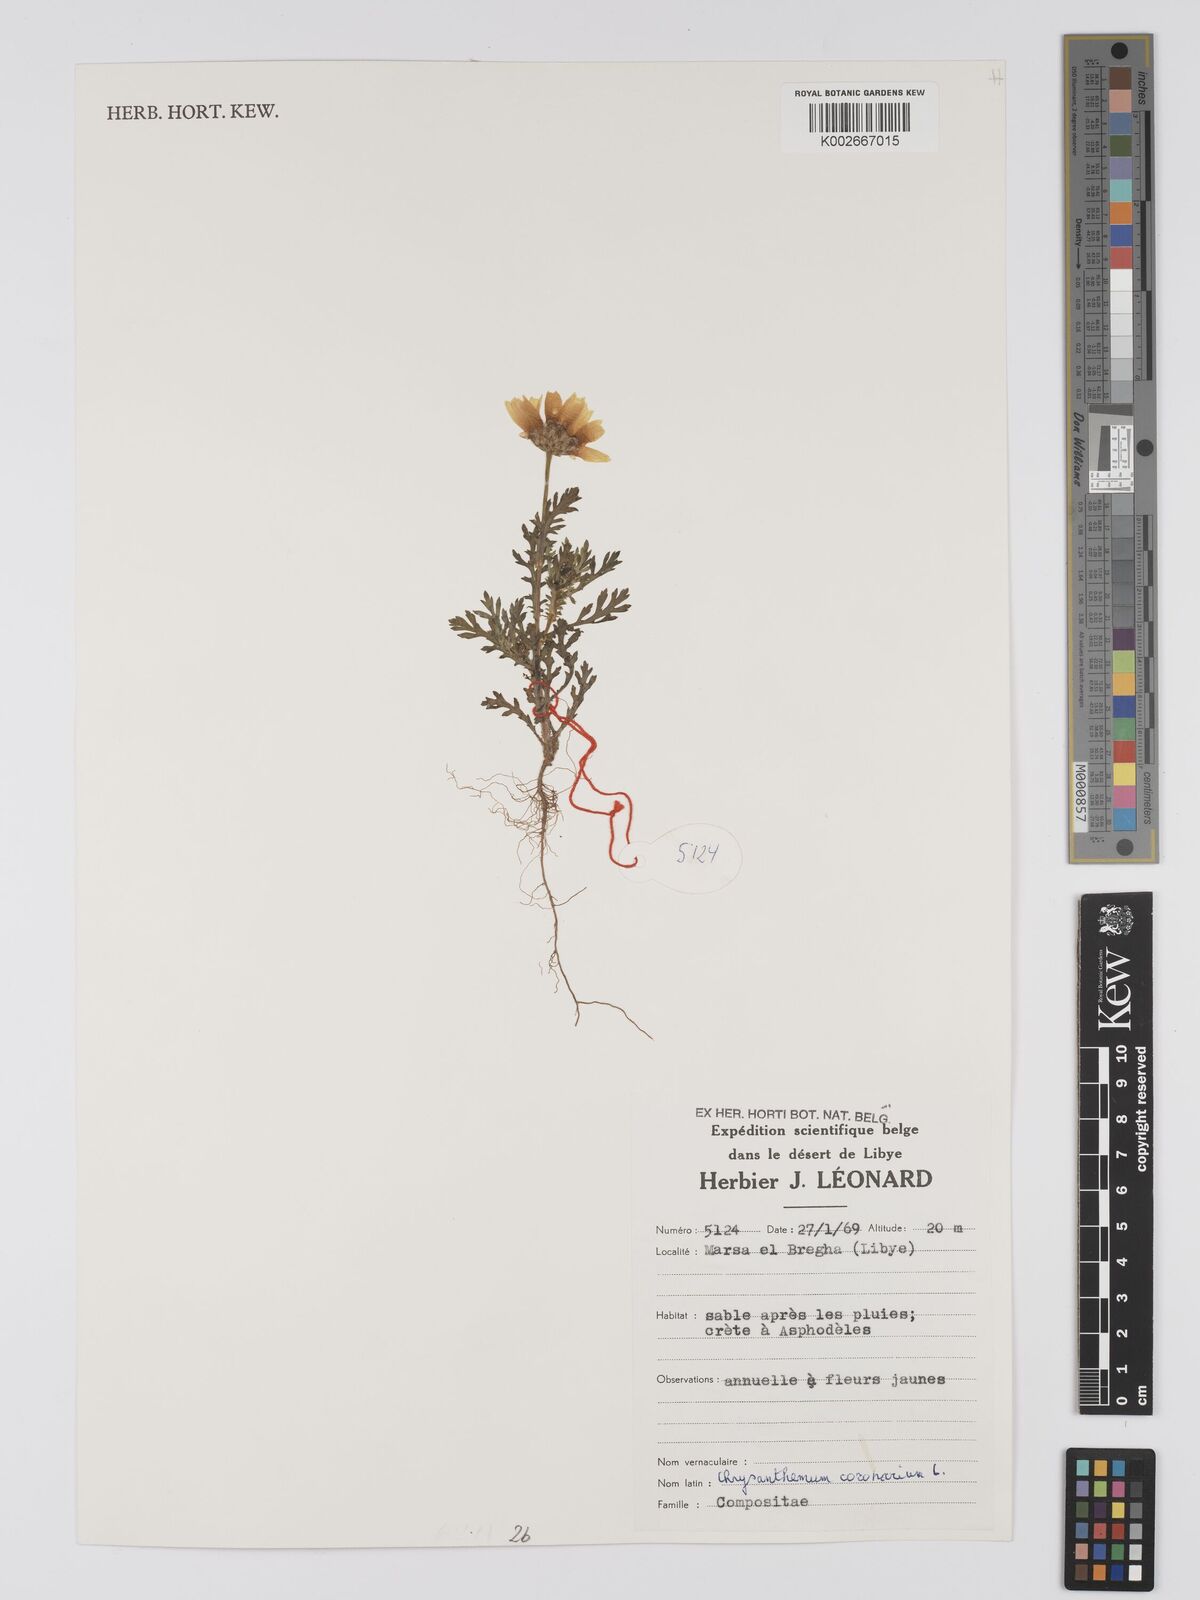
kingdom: Plantae
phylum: Tracheophyta
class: Magnoliopsida
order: Asterales
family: Asteraceae
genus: Glebionis
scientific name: Glebionis coronaria
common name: Crowndaisy
